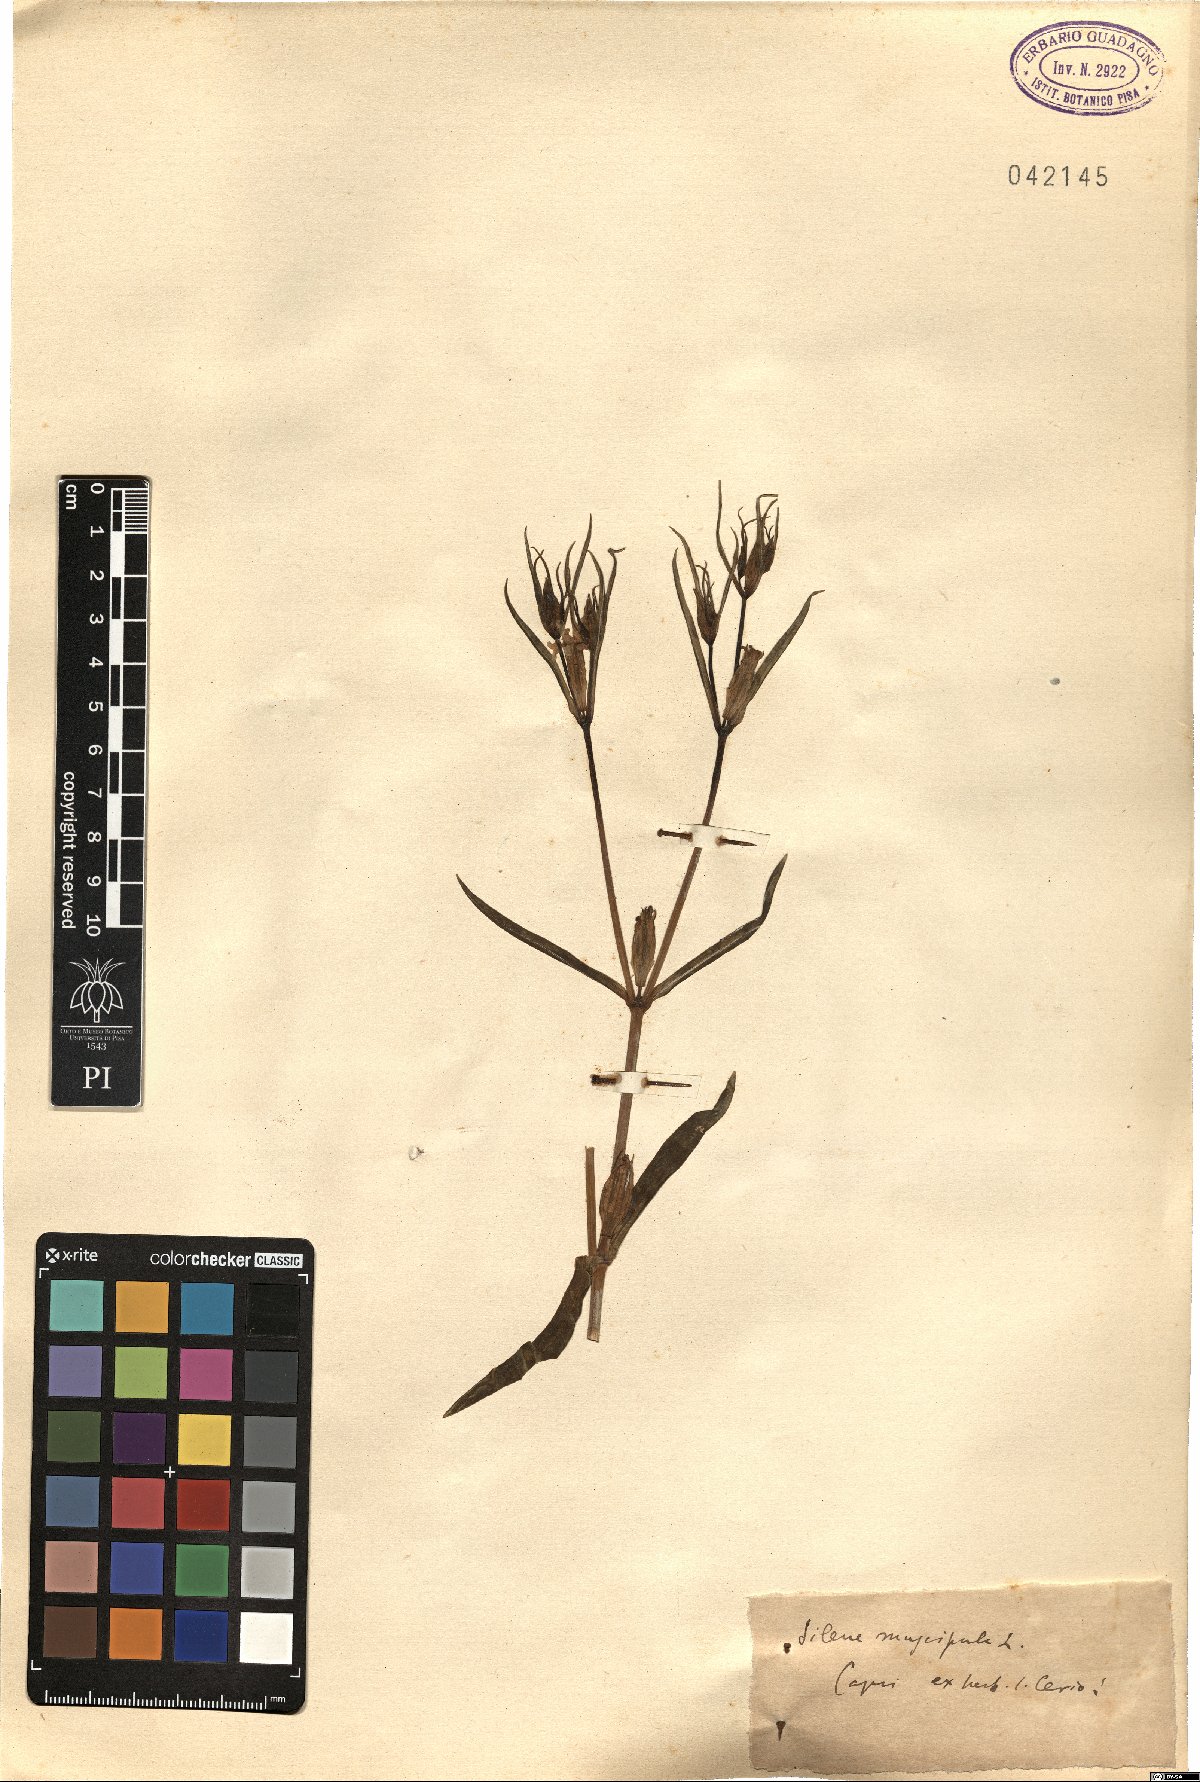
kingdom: Plantae
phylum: Tracheophyta
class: Magnoliopsida
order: Caryophyllales
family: Caryophyllaceae
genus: Silene
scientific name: Silene muscipula
